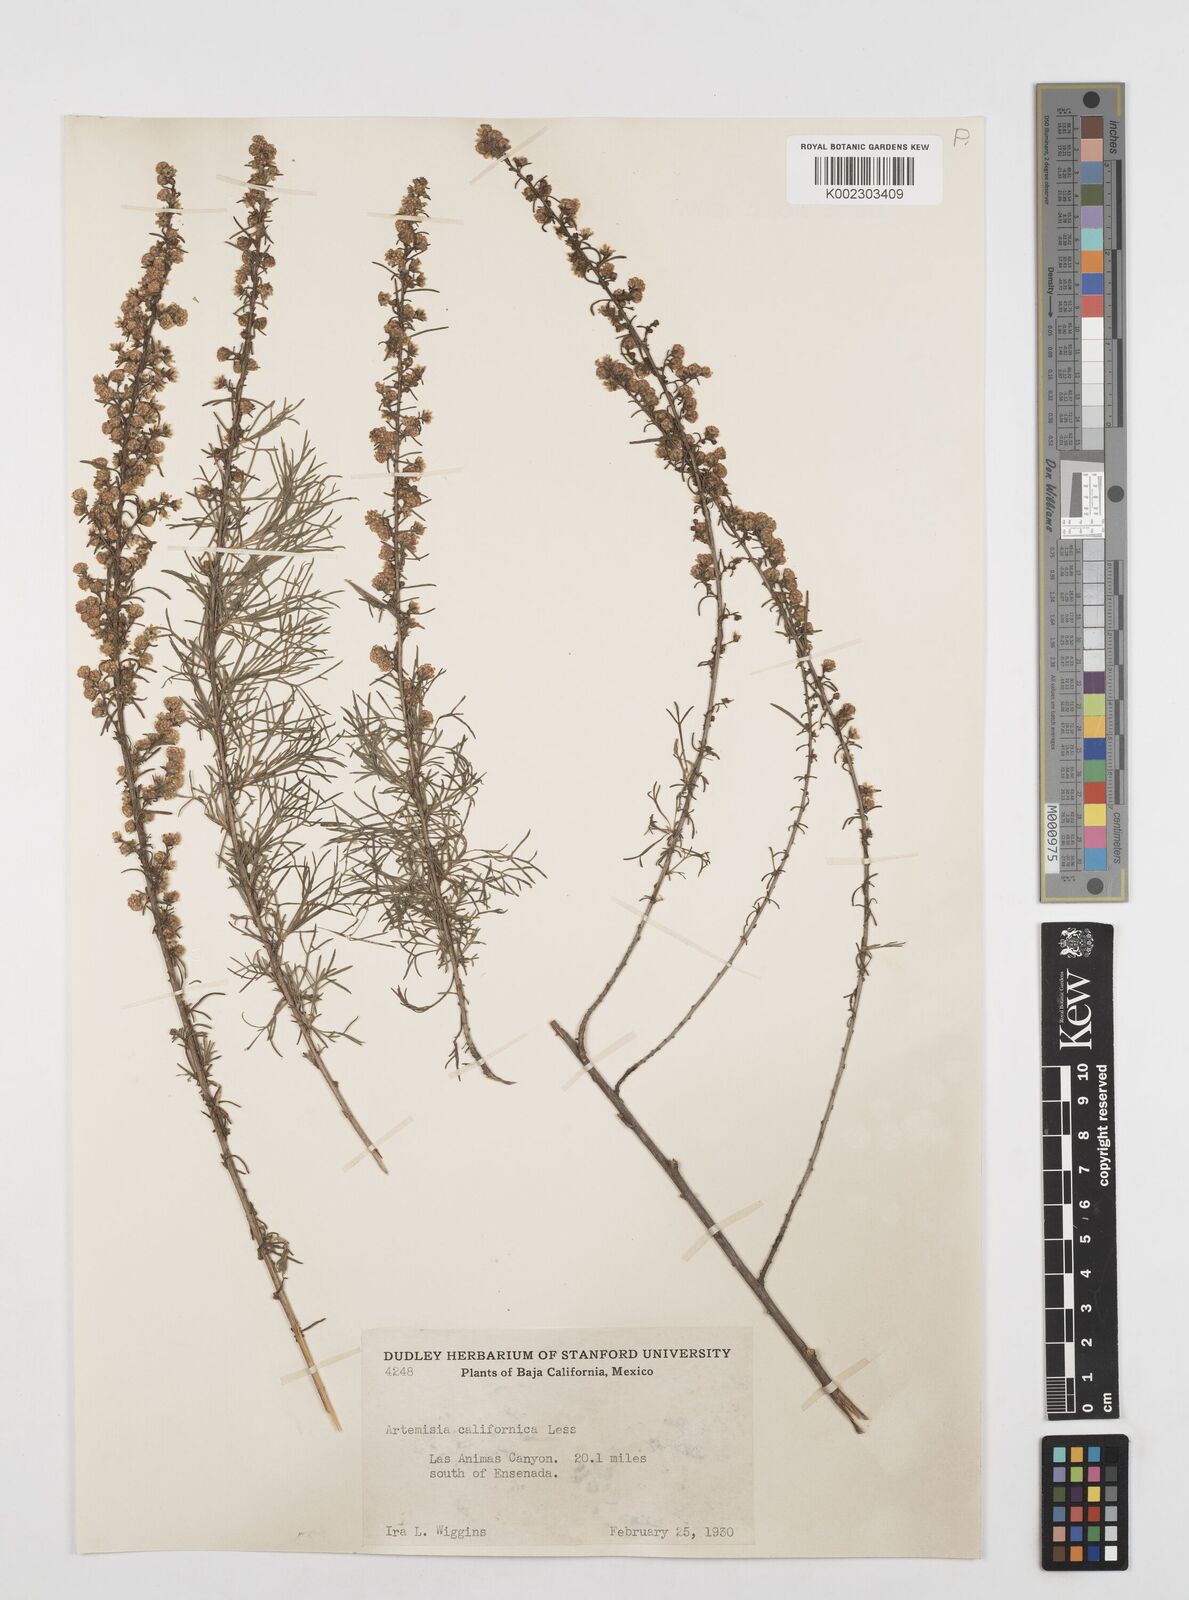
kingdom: Plantae
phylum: Tracheophyta
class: Magnoliopsida
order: Asterales
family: Asteraceae
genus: Artemisia
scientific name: Artemisia californica
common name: California sagebrush
